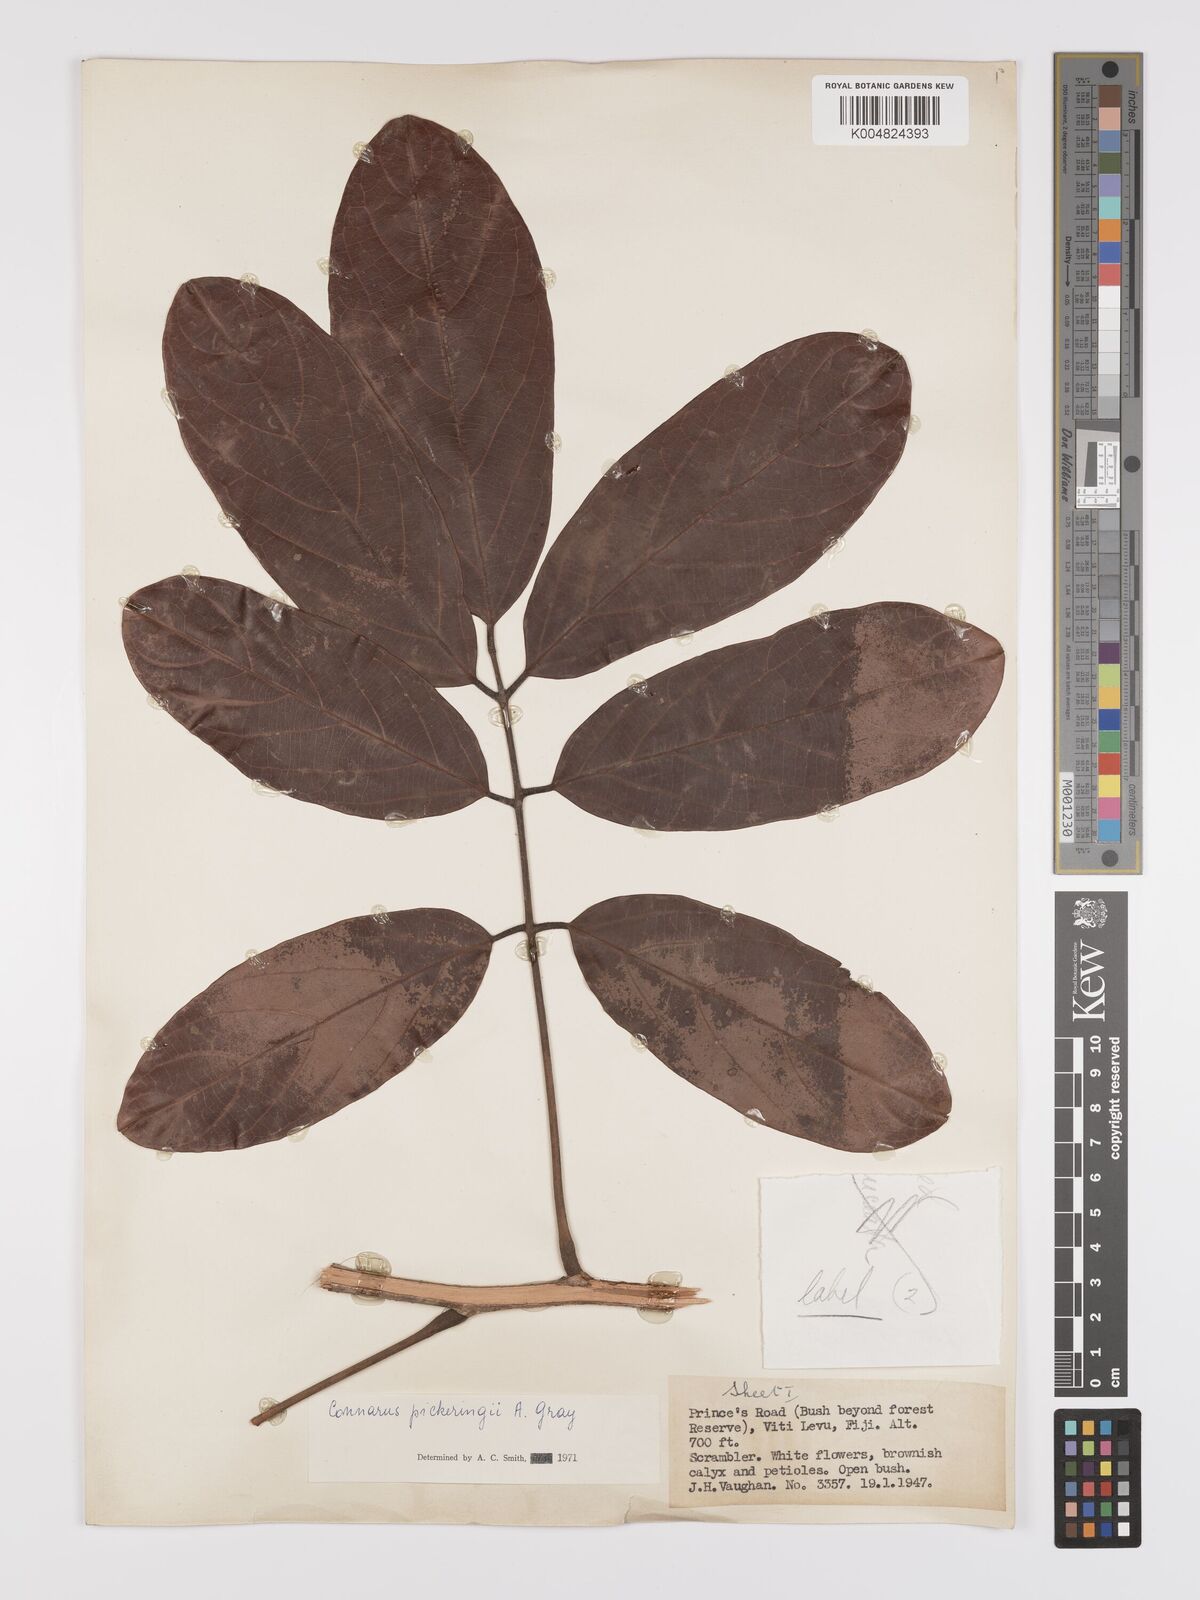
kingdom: Plantae
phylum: Tracheophyta
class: Magnoliopsida
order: Oxalidales
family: Connaraceae
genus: Connarus
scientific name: Connarus pickeringii
